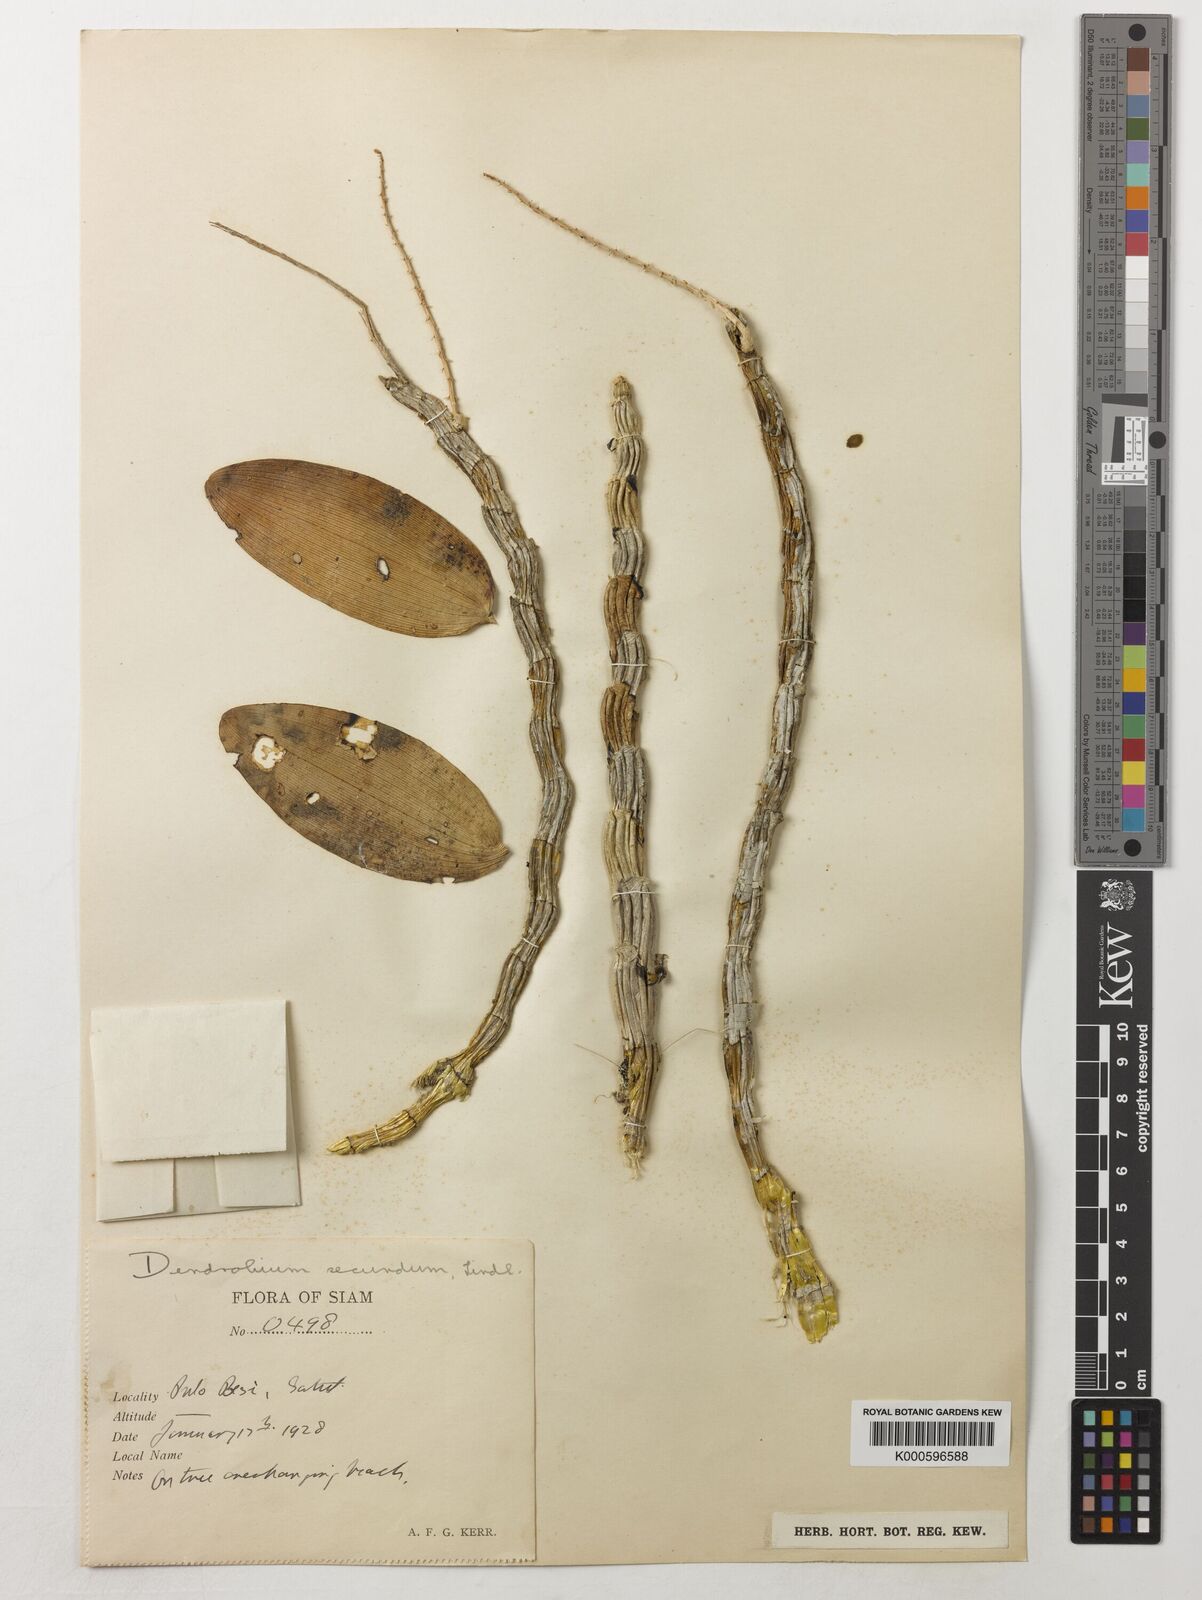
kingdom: Plantae
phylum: Tracheophyta
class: Liliopsida
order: Asparagales
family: Orchidaceae
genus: Dendrobium
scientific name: Dendrobium
